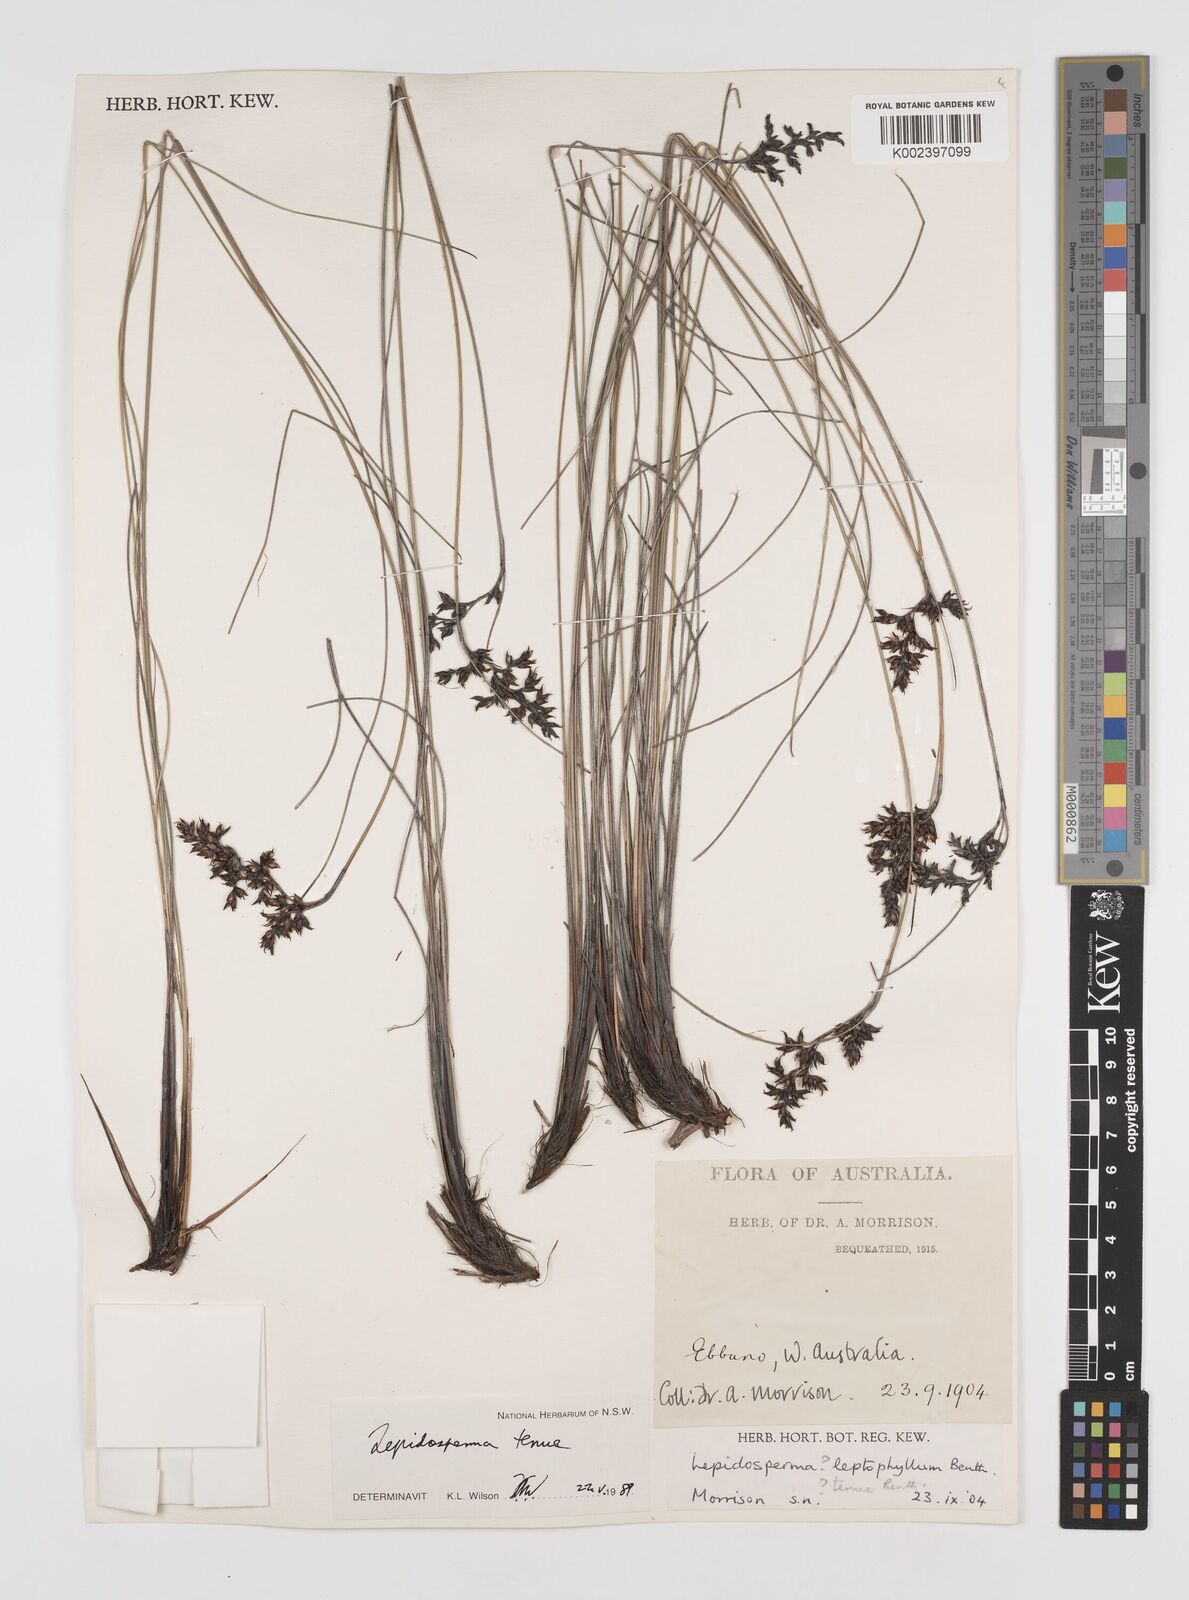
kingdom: Plantae
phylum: Tracheophyta
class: Liliopsida
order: Poales
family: Cyperaceae
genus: Lepidosperma
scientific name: Lepidosperma tenue
